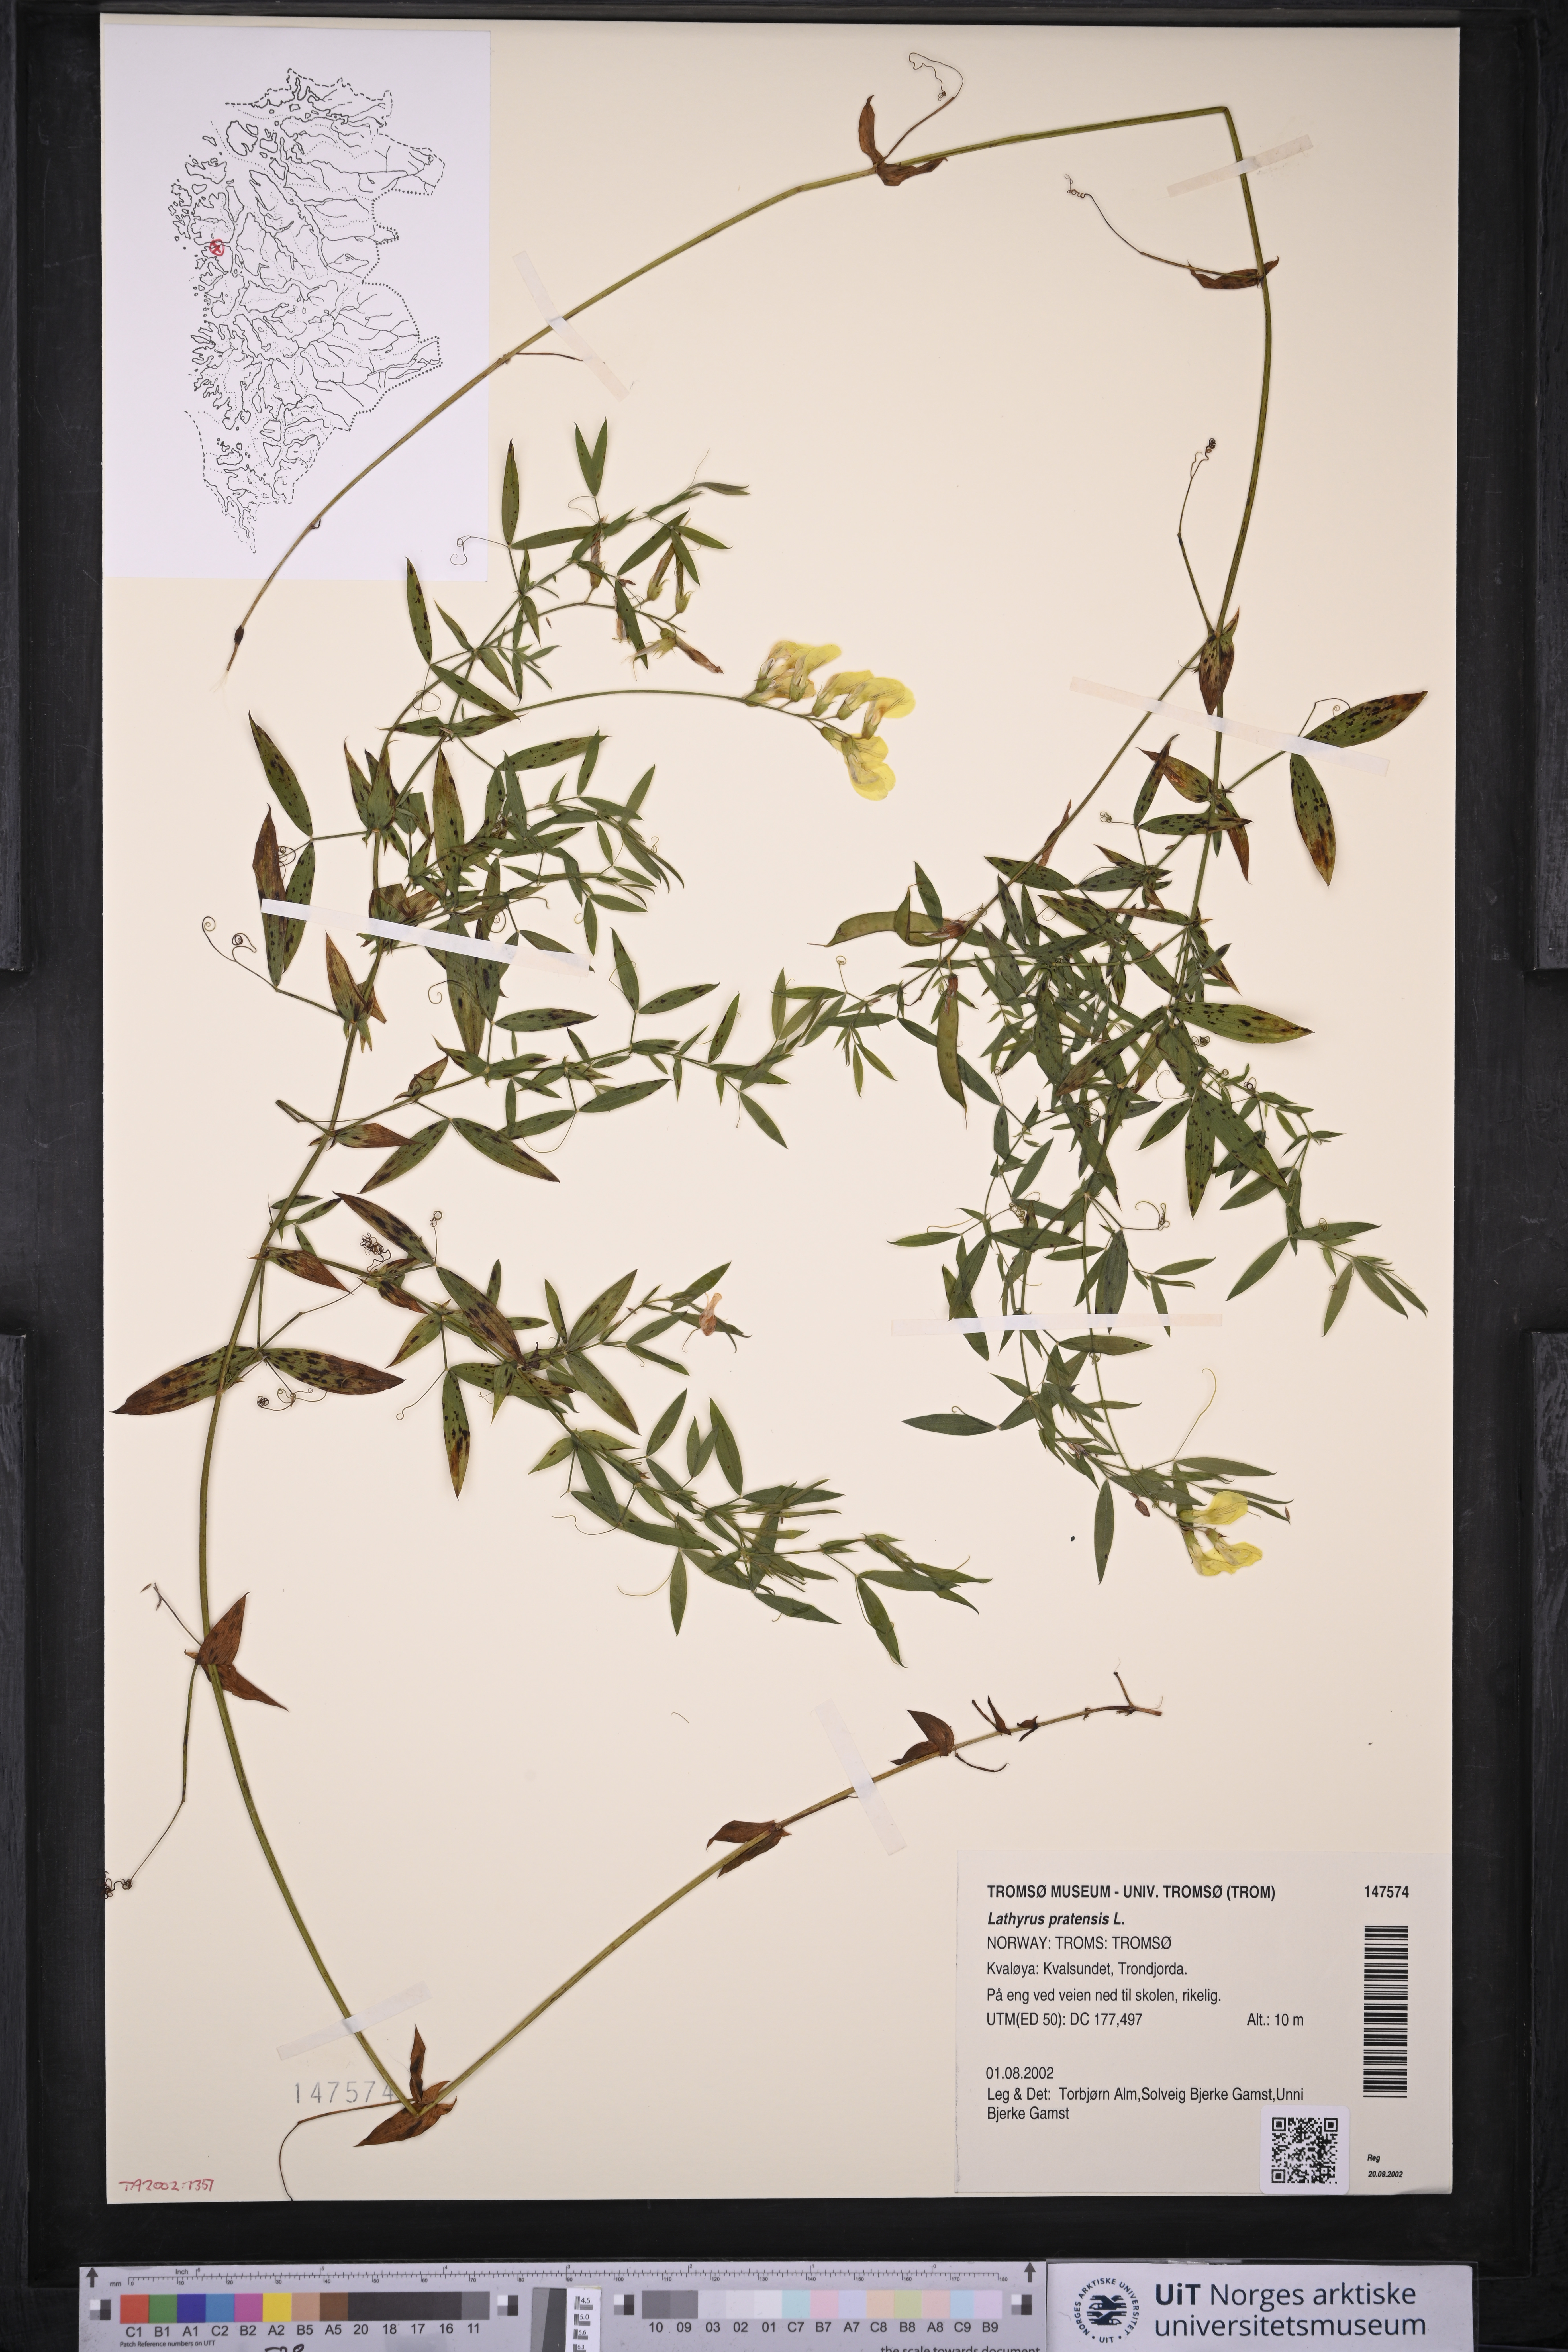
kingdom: Plantae
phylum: Tracheophyta
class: Magnoliopsida
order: Fabales
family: Fabaceae
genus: Lathyrus
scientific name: Lathyrus pratensis
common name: Meadow vetchling
